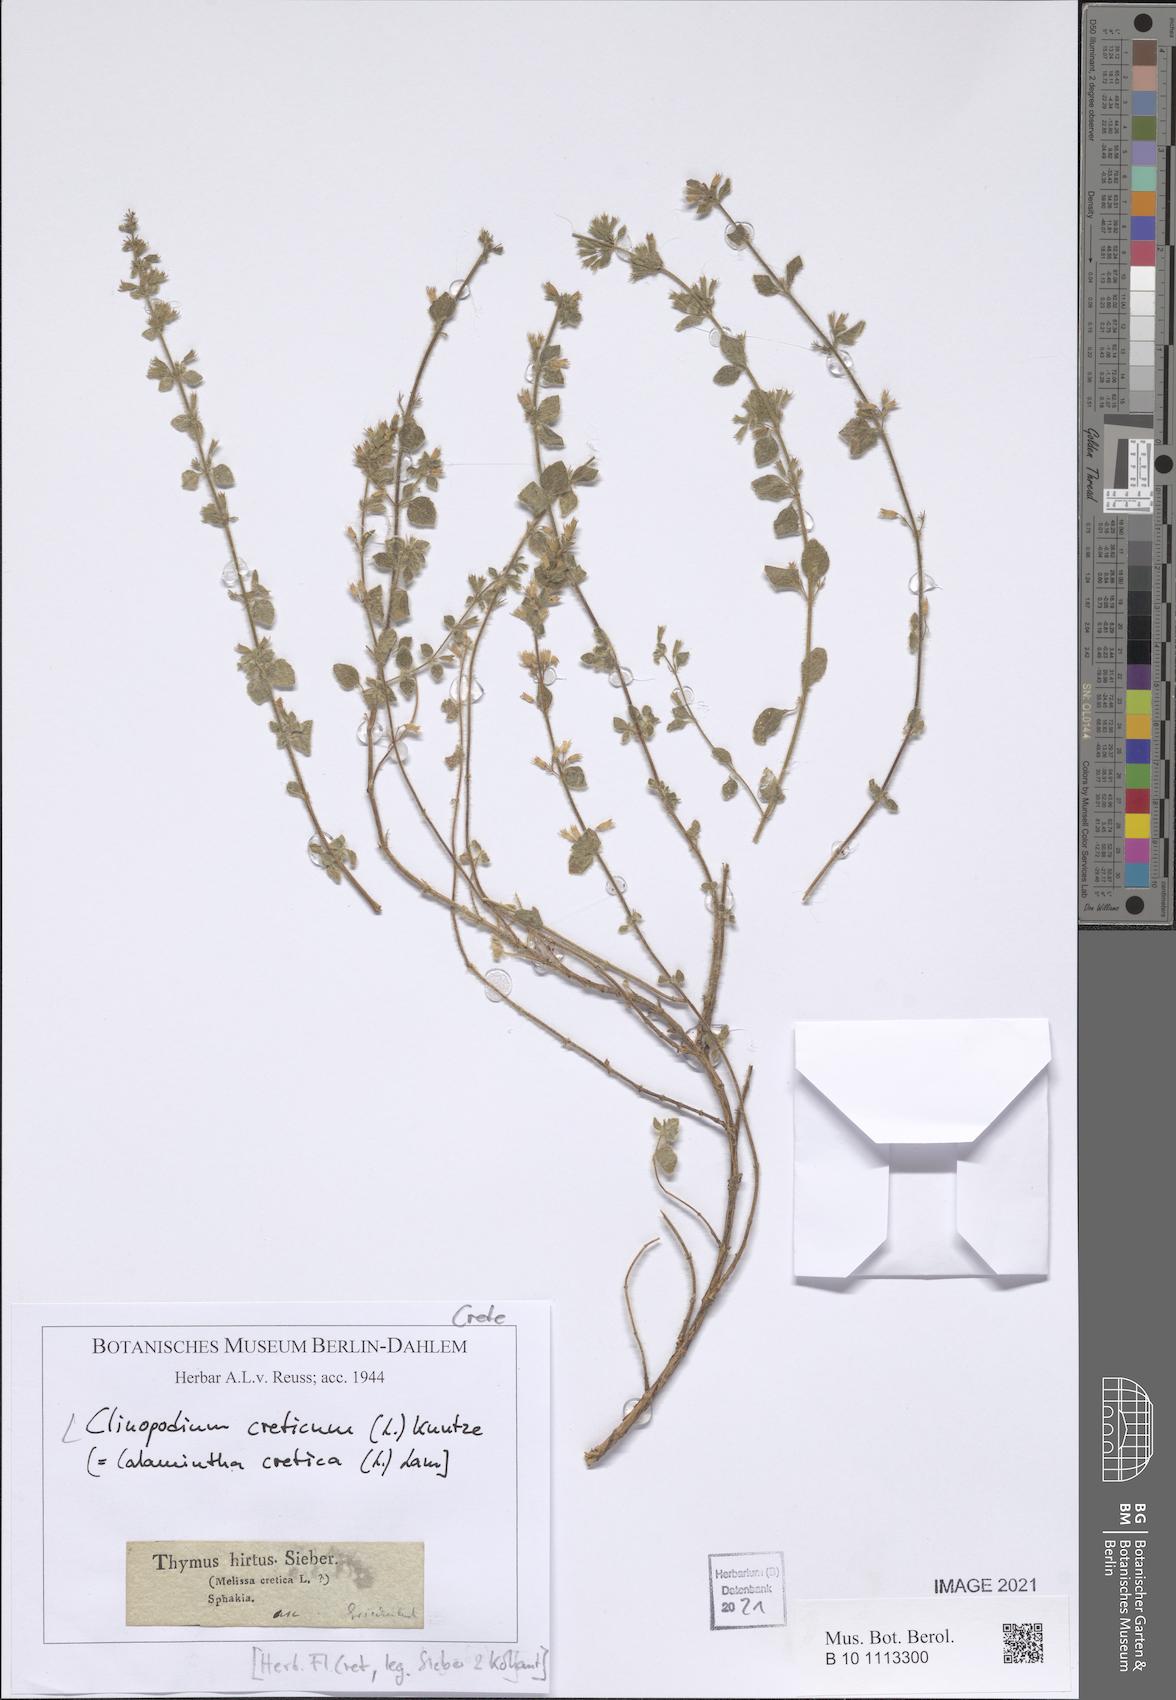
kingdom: Plantae
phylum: Tracheophyta
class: Magnoliopsida
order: Lamiales
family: Lamiaceae
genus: Clinopodium
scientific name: Clinopodium creticum
